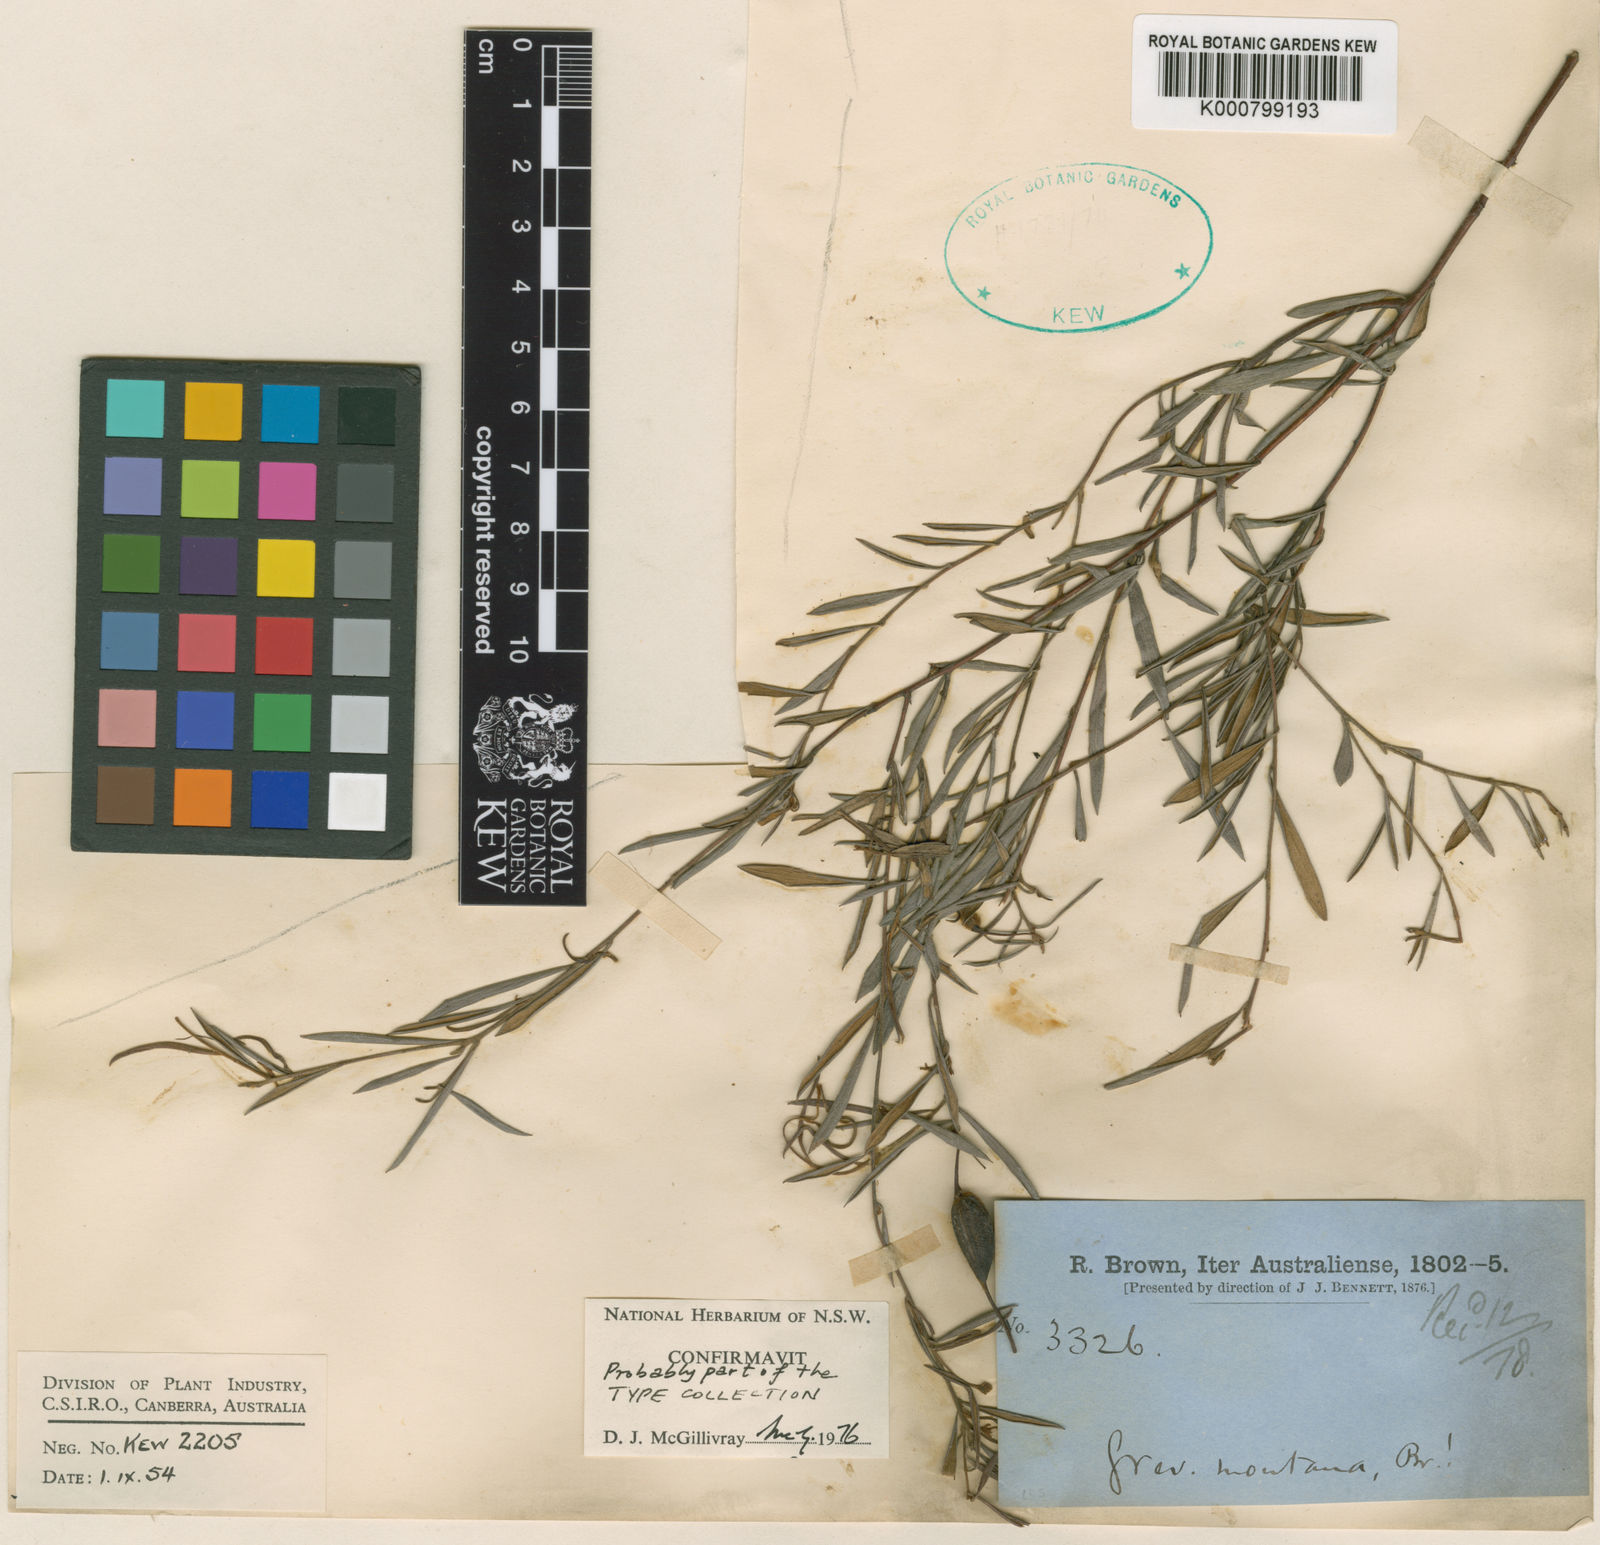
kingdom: Plantae
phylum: Tracheophyta
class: Magnoliopsida
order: Proteales
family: Proteaceae
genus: Grevillea
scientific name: Grevillea montana
